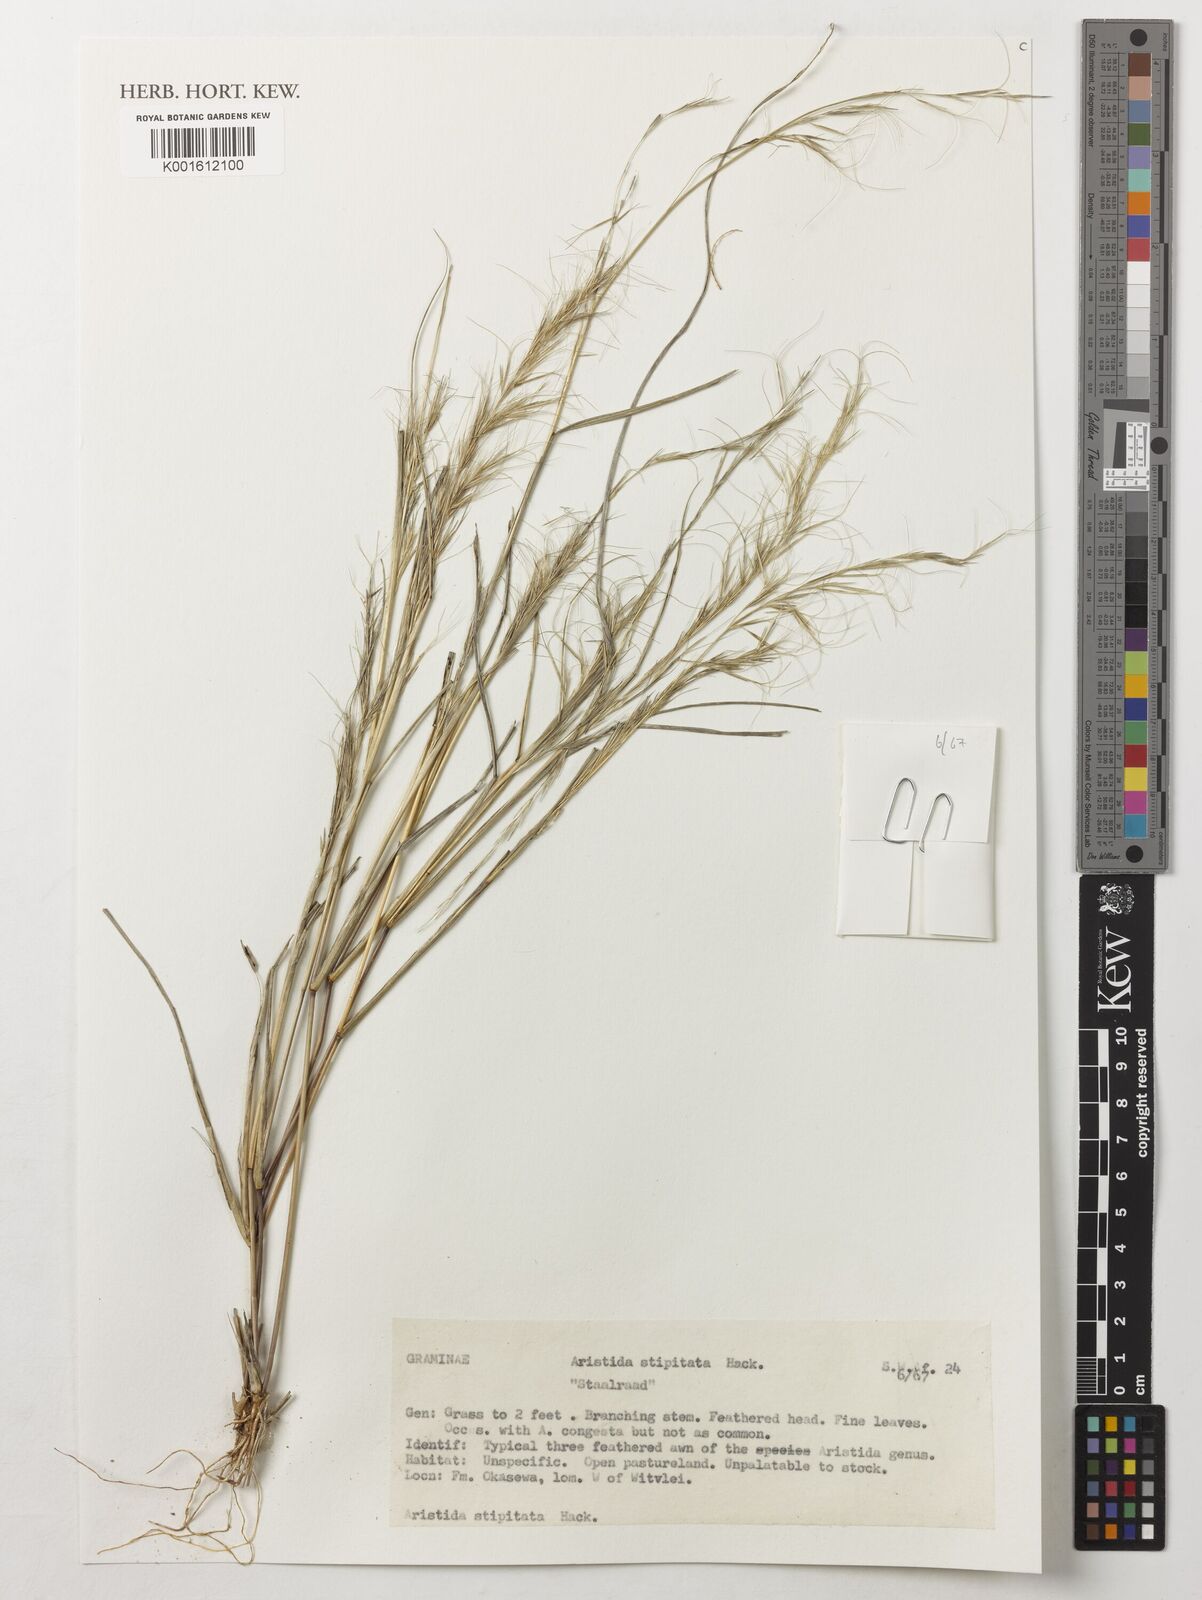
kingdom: Plantae
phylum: Tracheophyta
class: Liliopsida
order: Poales
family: Poaceae
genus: Aristida
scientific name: Aristida stipitata
